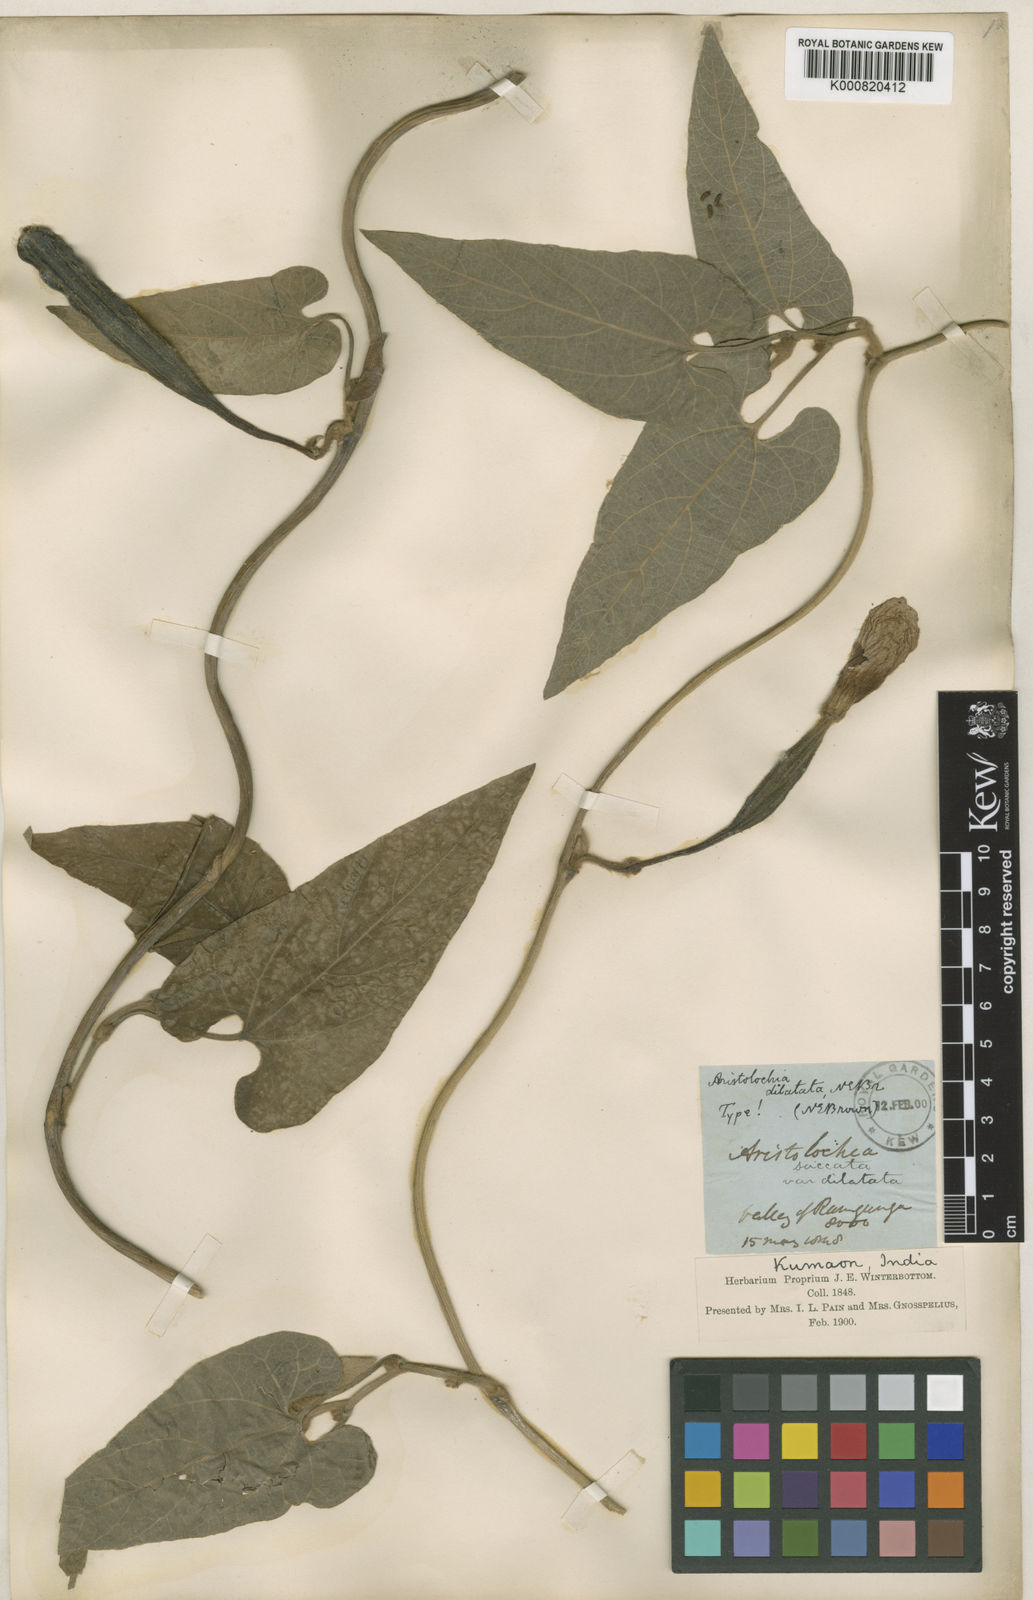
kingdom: Plantae
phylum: Tracheophyta
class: Magnoliopsida
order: Piperales
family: Aristolochiaceae
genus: Isotrema
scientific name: Isotrema
